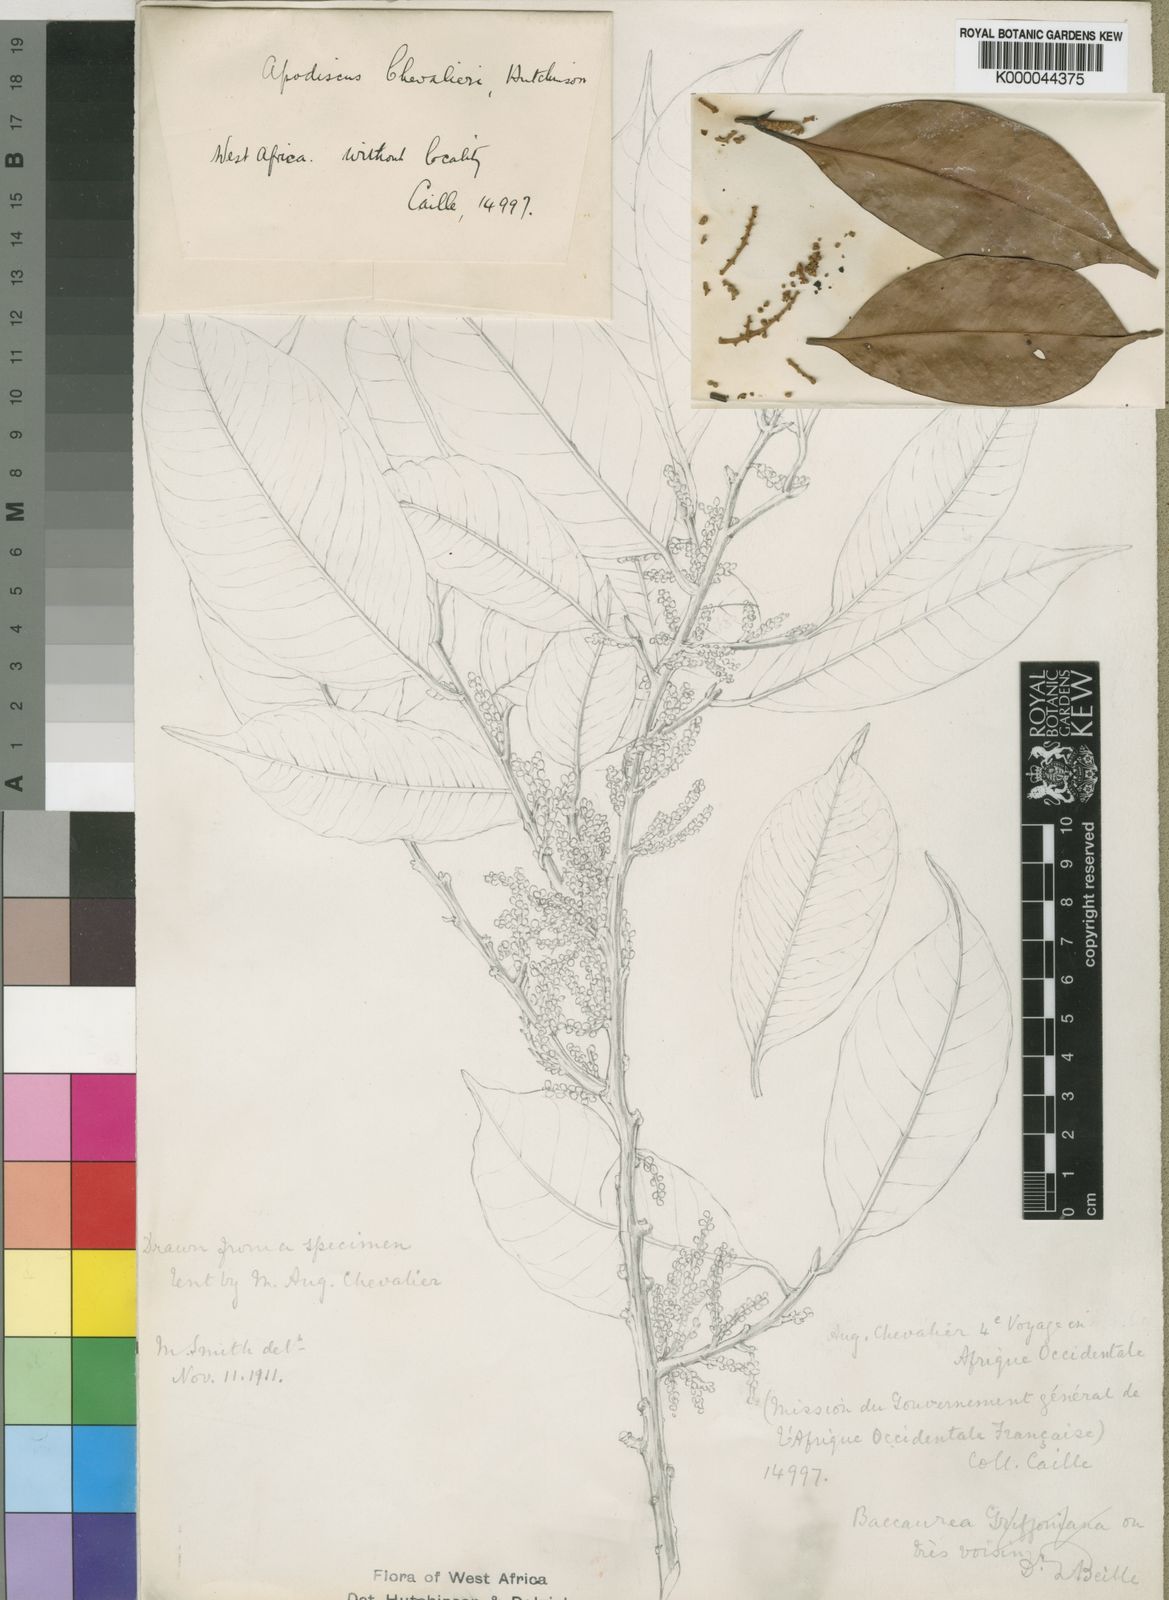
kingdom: Plantae
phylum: Tracheophyta
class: Magnoliopsida
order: Malpighiales
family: Phyllanthaceae
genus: Apodiscus
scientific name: Apodiscus chevalieri
